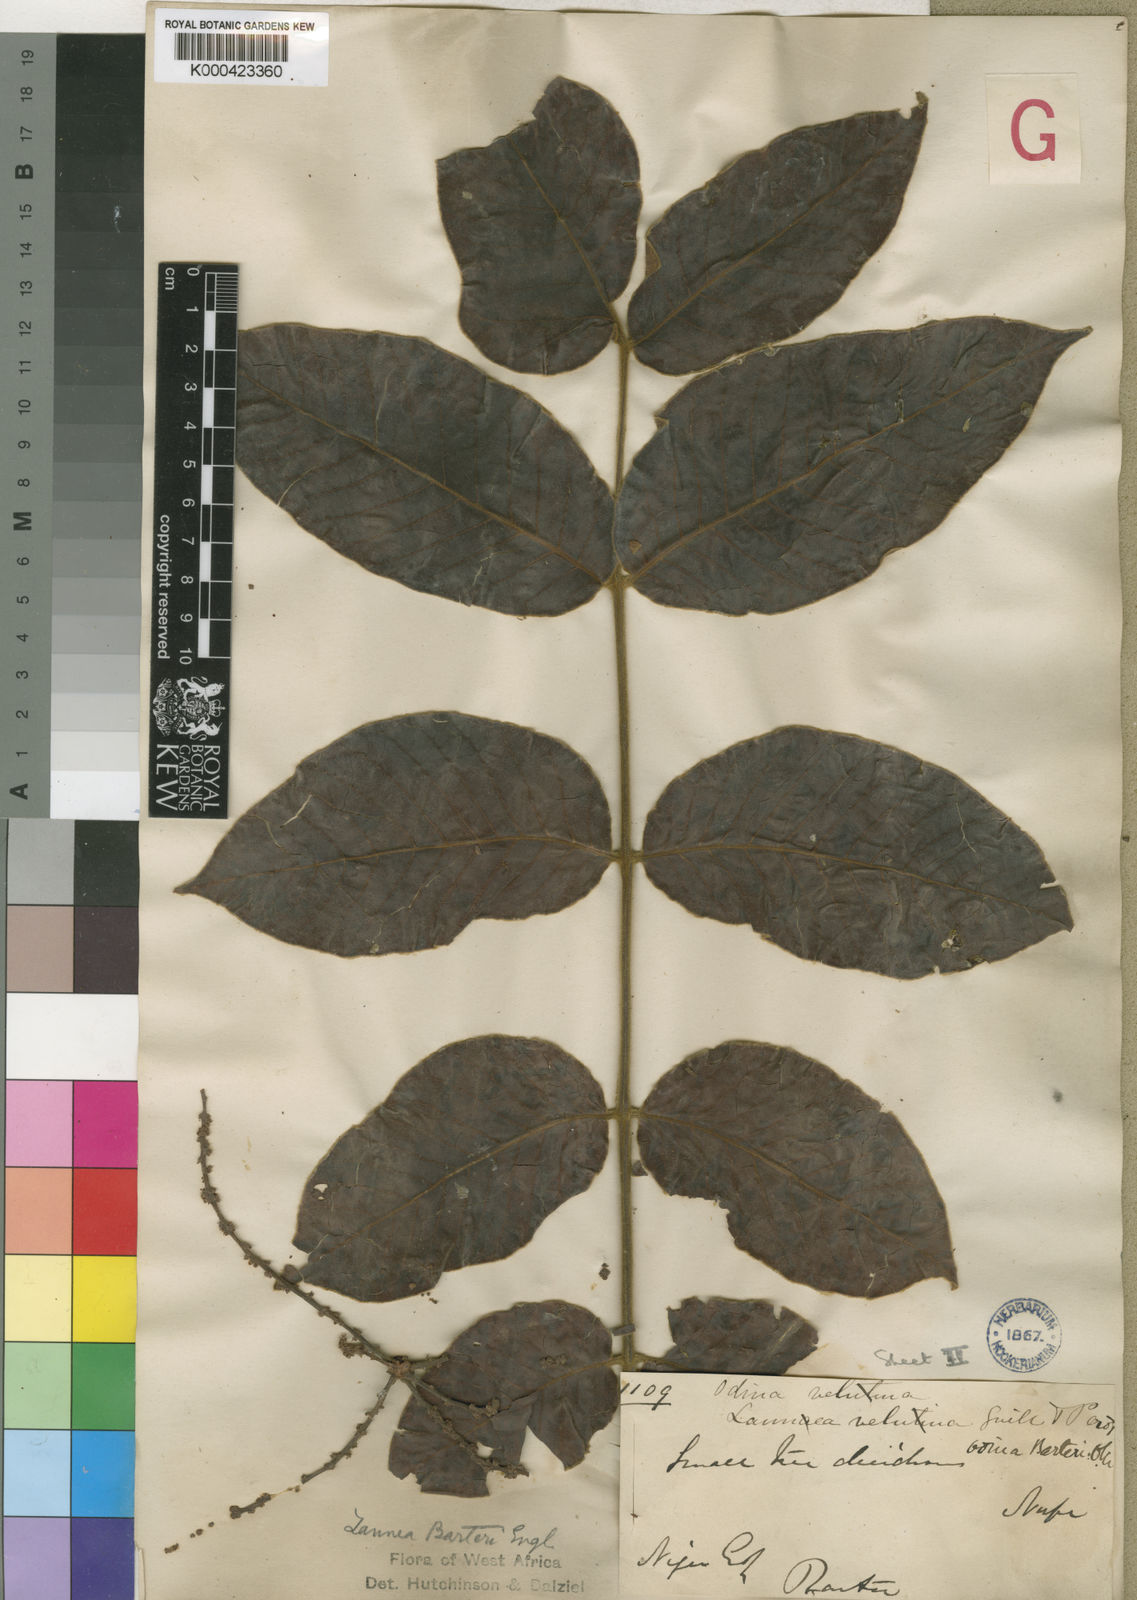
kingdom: Plantae
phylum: Tracheophyta
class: Magnoliopsida
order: Sapindales
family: Anacardiaceae
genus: Lannea
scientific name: Lannea barteri
